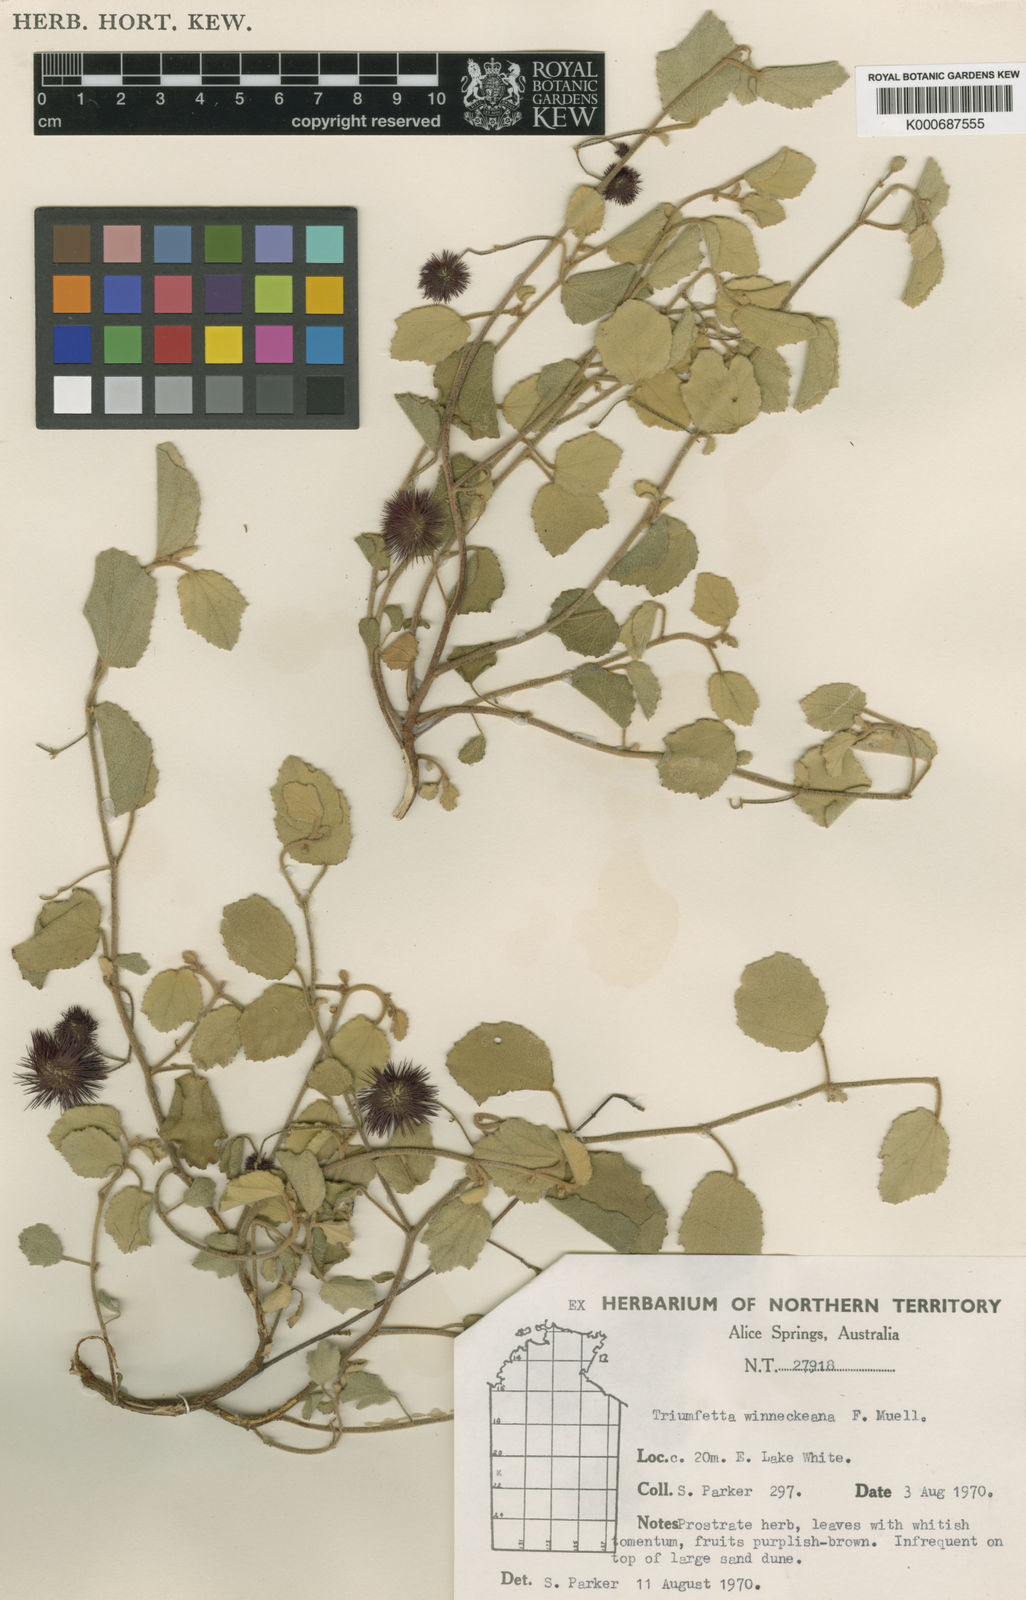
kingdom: Plantae
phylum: Tracheophyta
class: Magnoliopsida
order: Malvales
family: Malvaceae
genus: Triumfetta
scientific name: Triumfetta winneckeana
